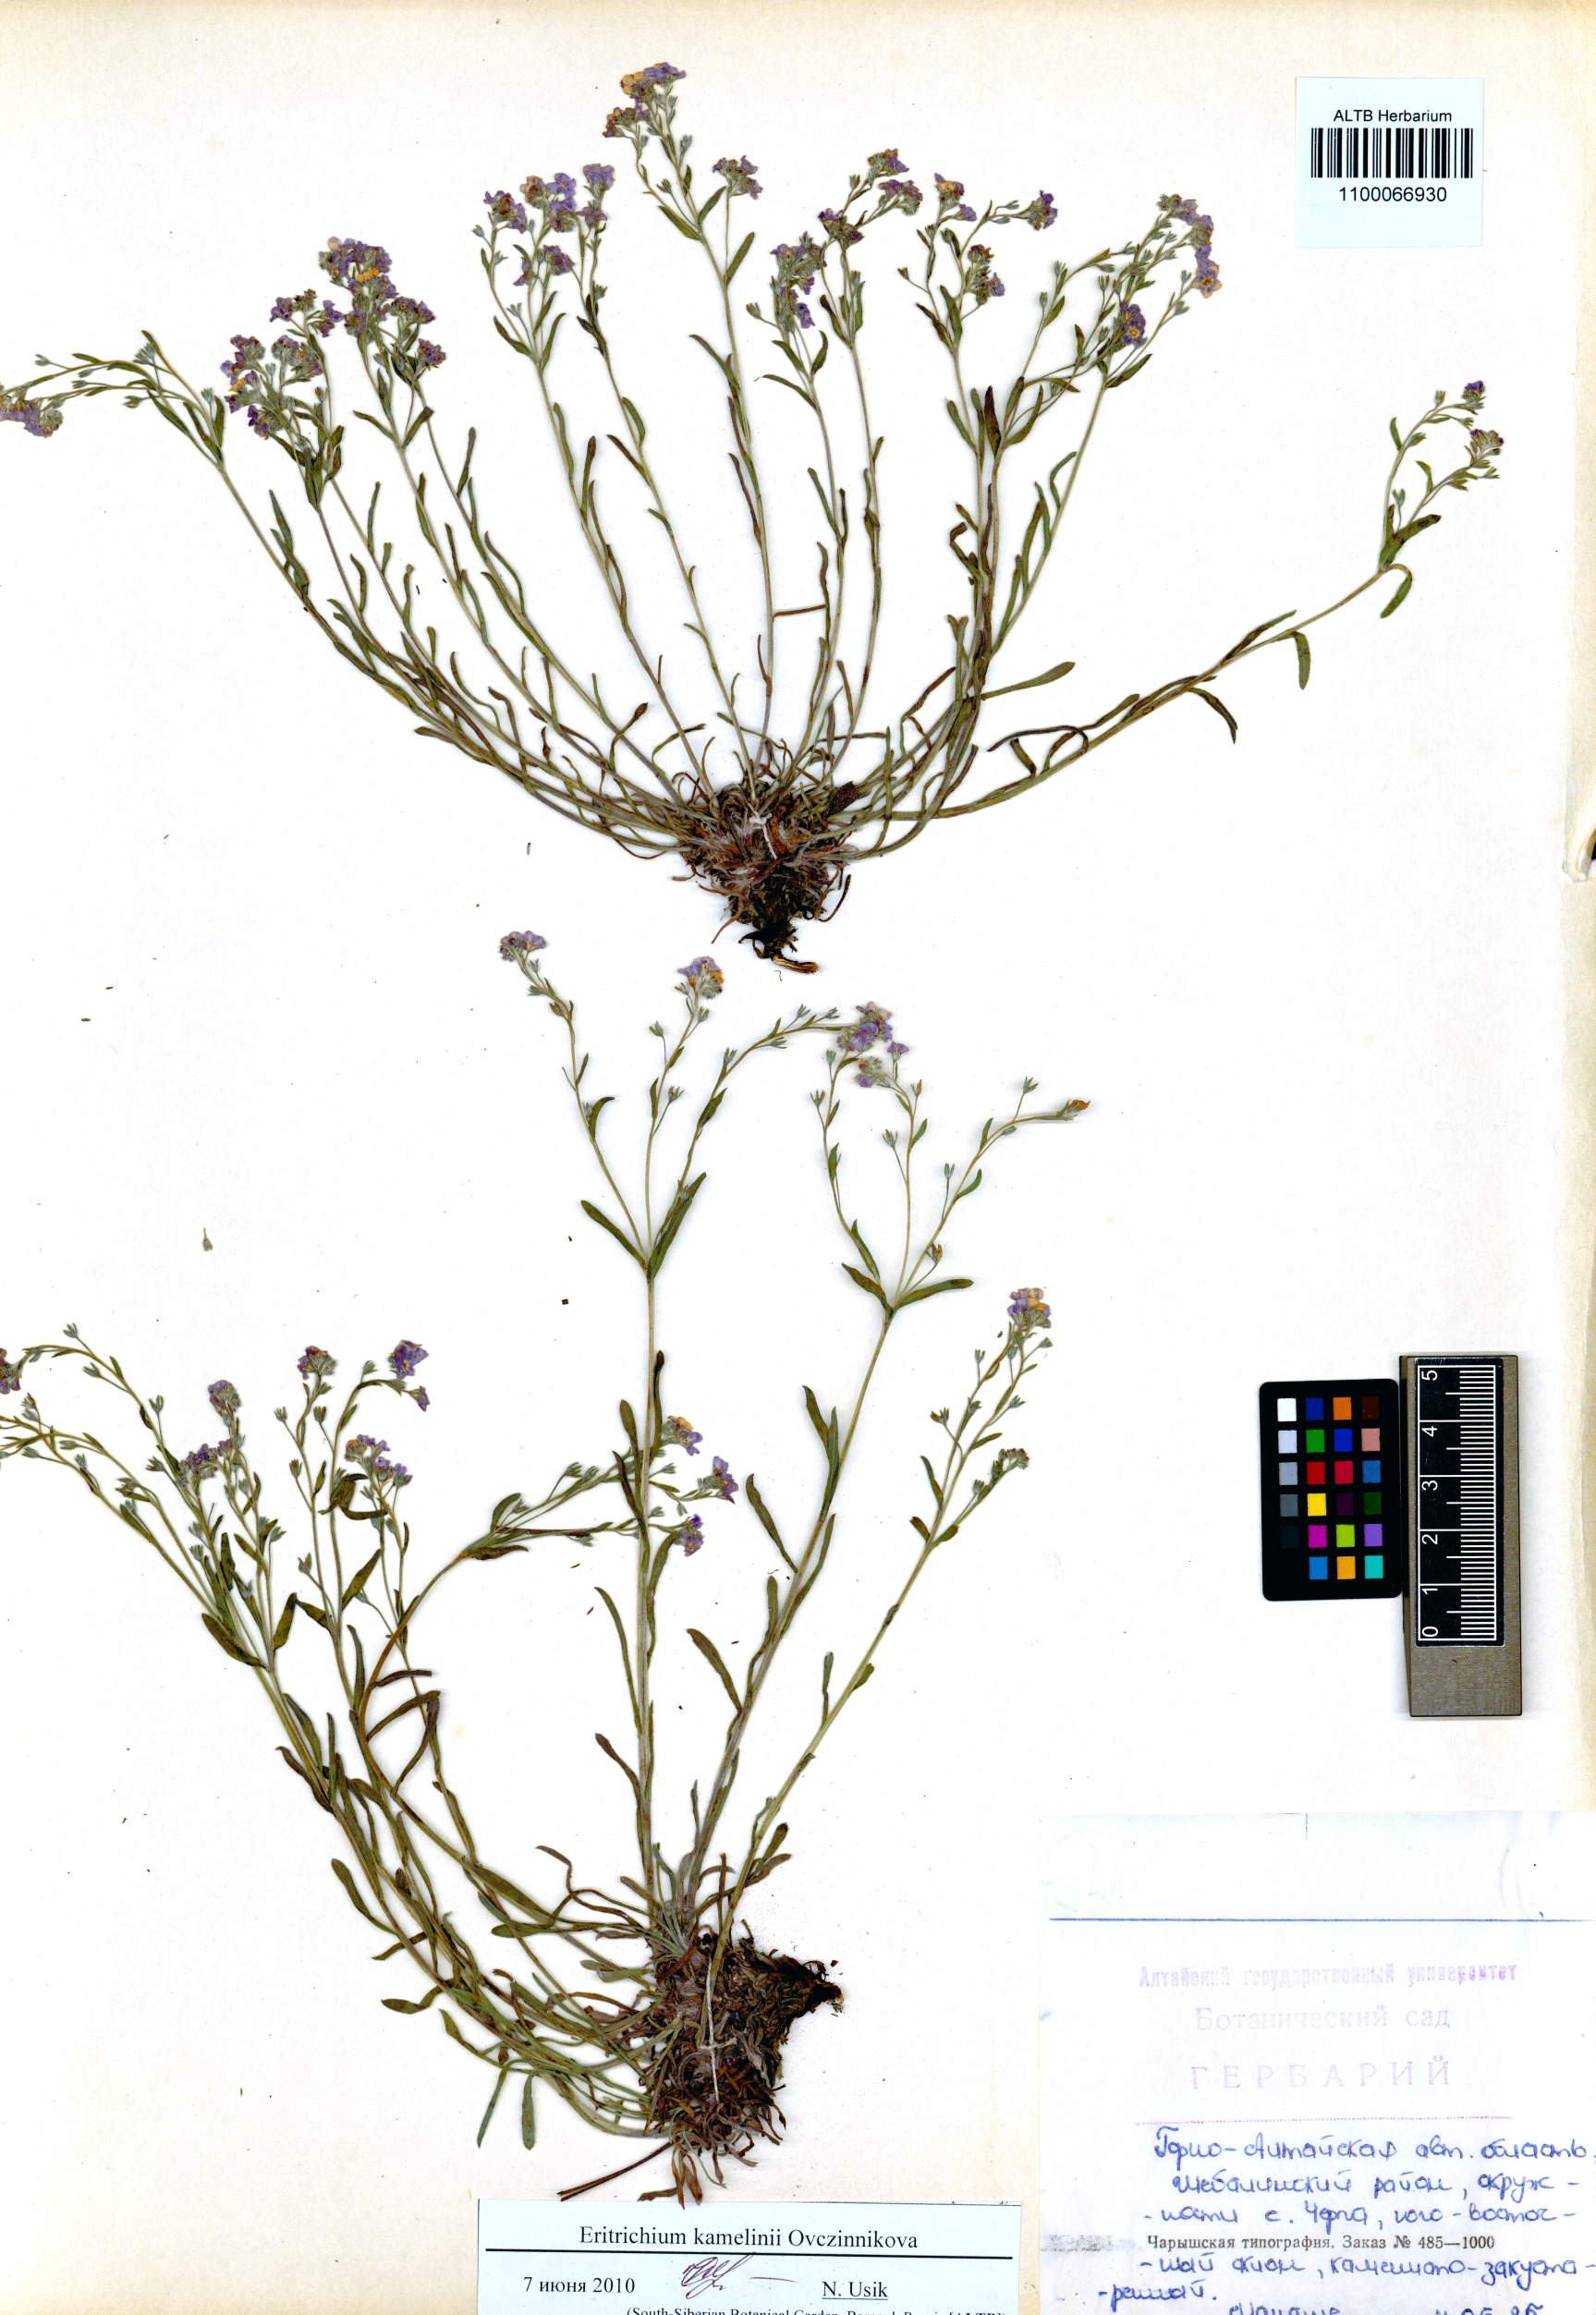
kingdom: Plantae
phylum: Tracheophyta
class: Magnoliopsida
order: Boraginales
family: Boraginaceae
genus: Eritrichium
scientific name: Eritrichium kamelinii
